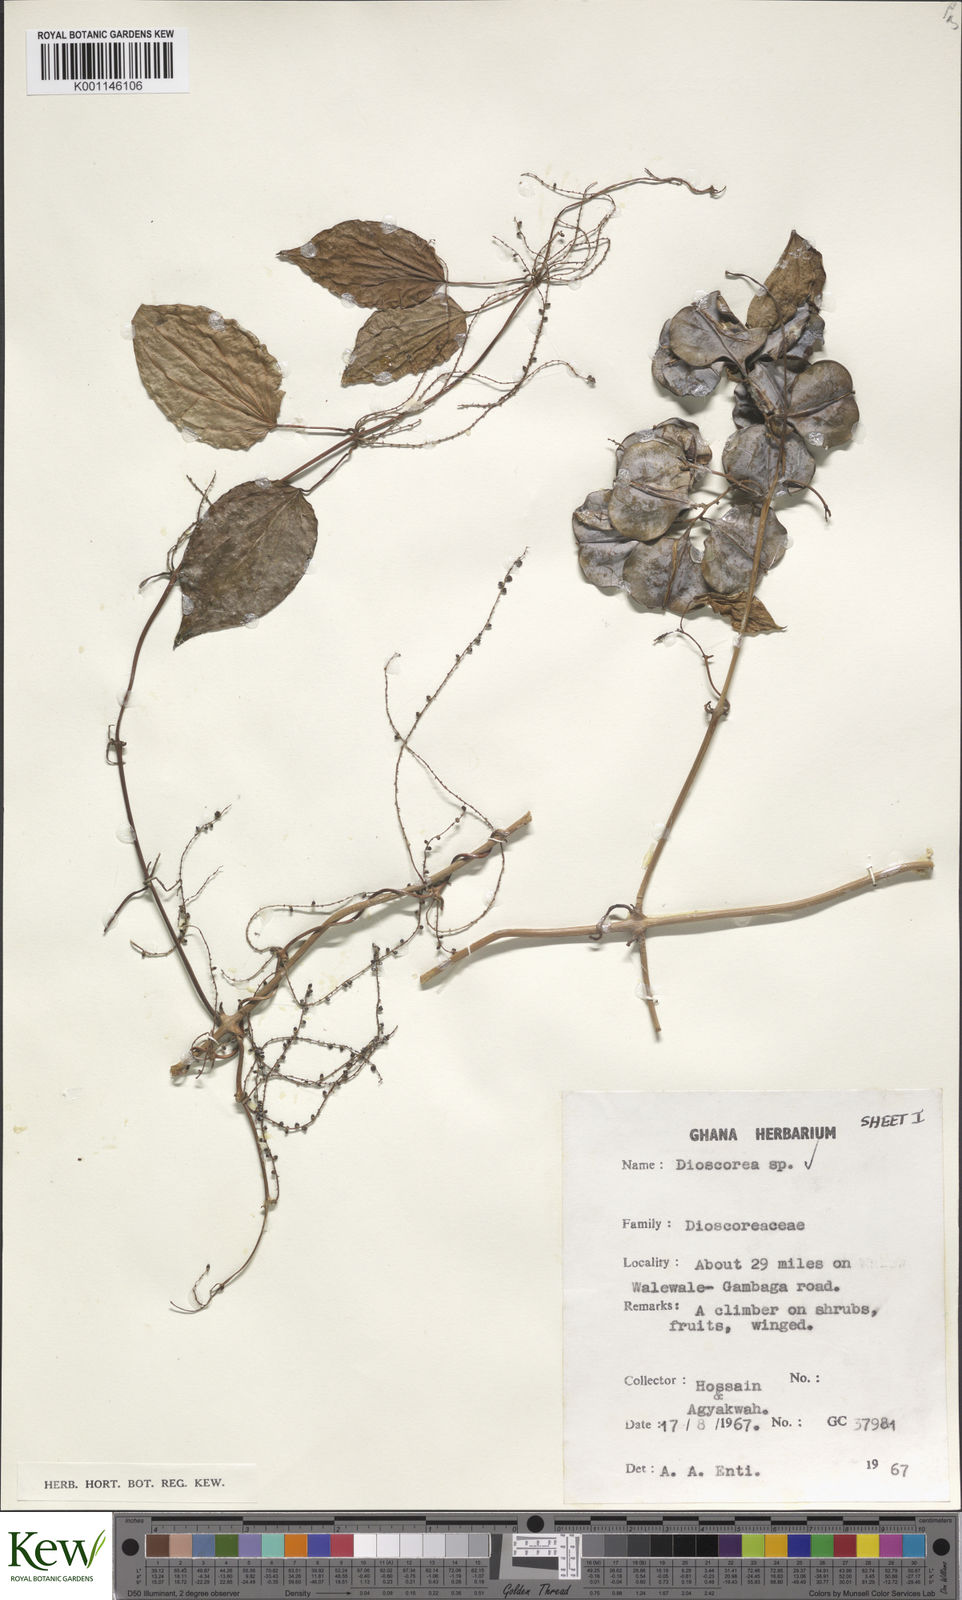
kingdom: Plantae
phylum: Tracheophyta
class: Liliopsida
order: Dioscoreales
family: Dioscoreaceae
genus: Dioscorea
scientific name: Dioscorea
